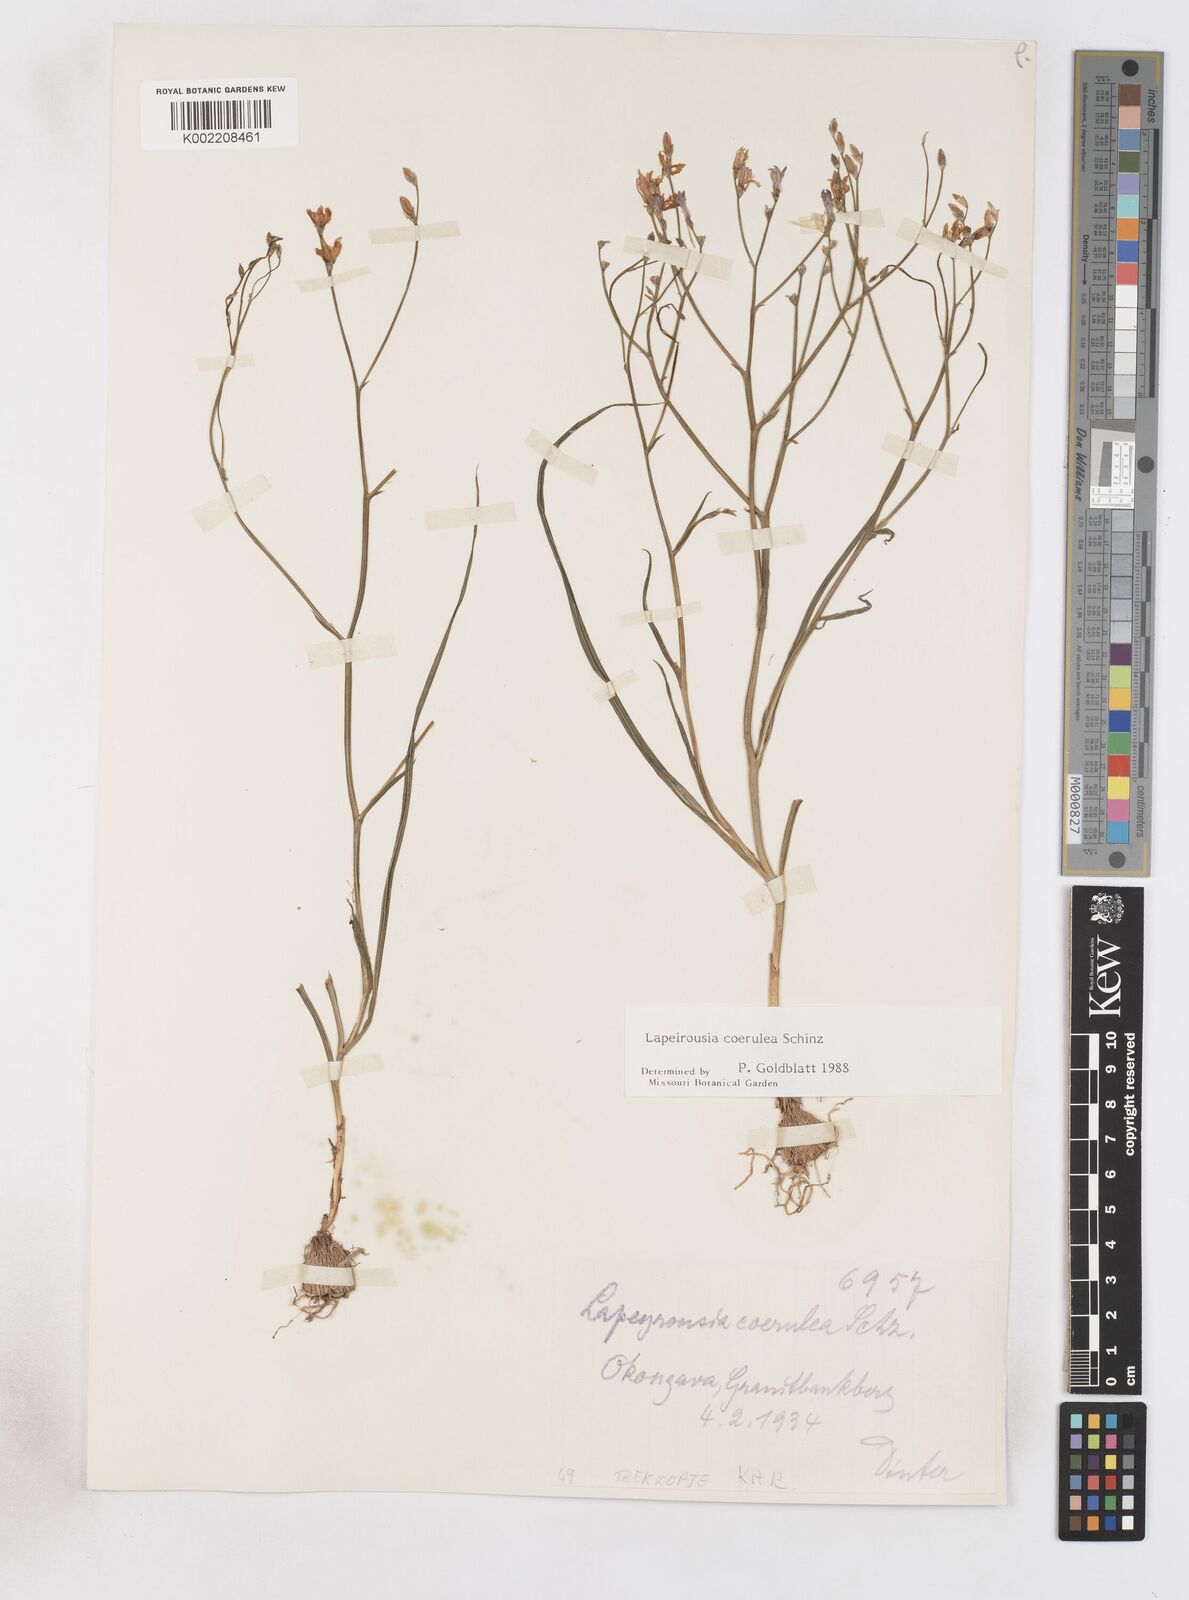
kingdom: Plantae
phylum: Tracheophyta
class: Liliopsida
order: Asparagales
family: Iridaceae
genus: Afrosolen
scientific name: Afrosolen coeruleus
